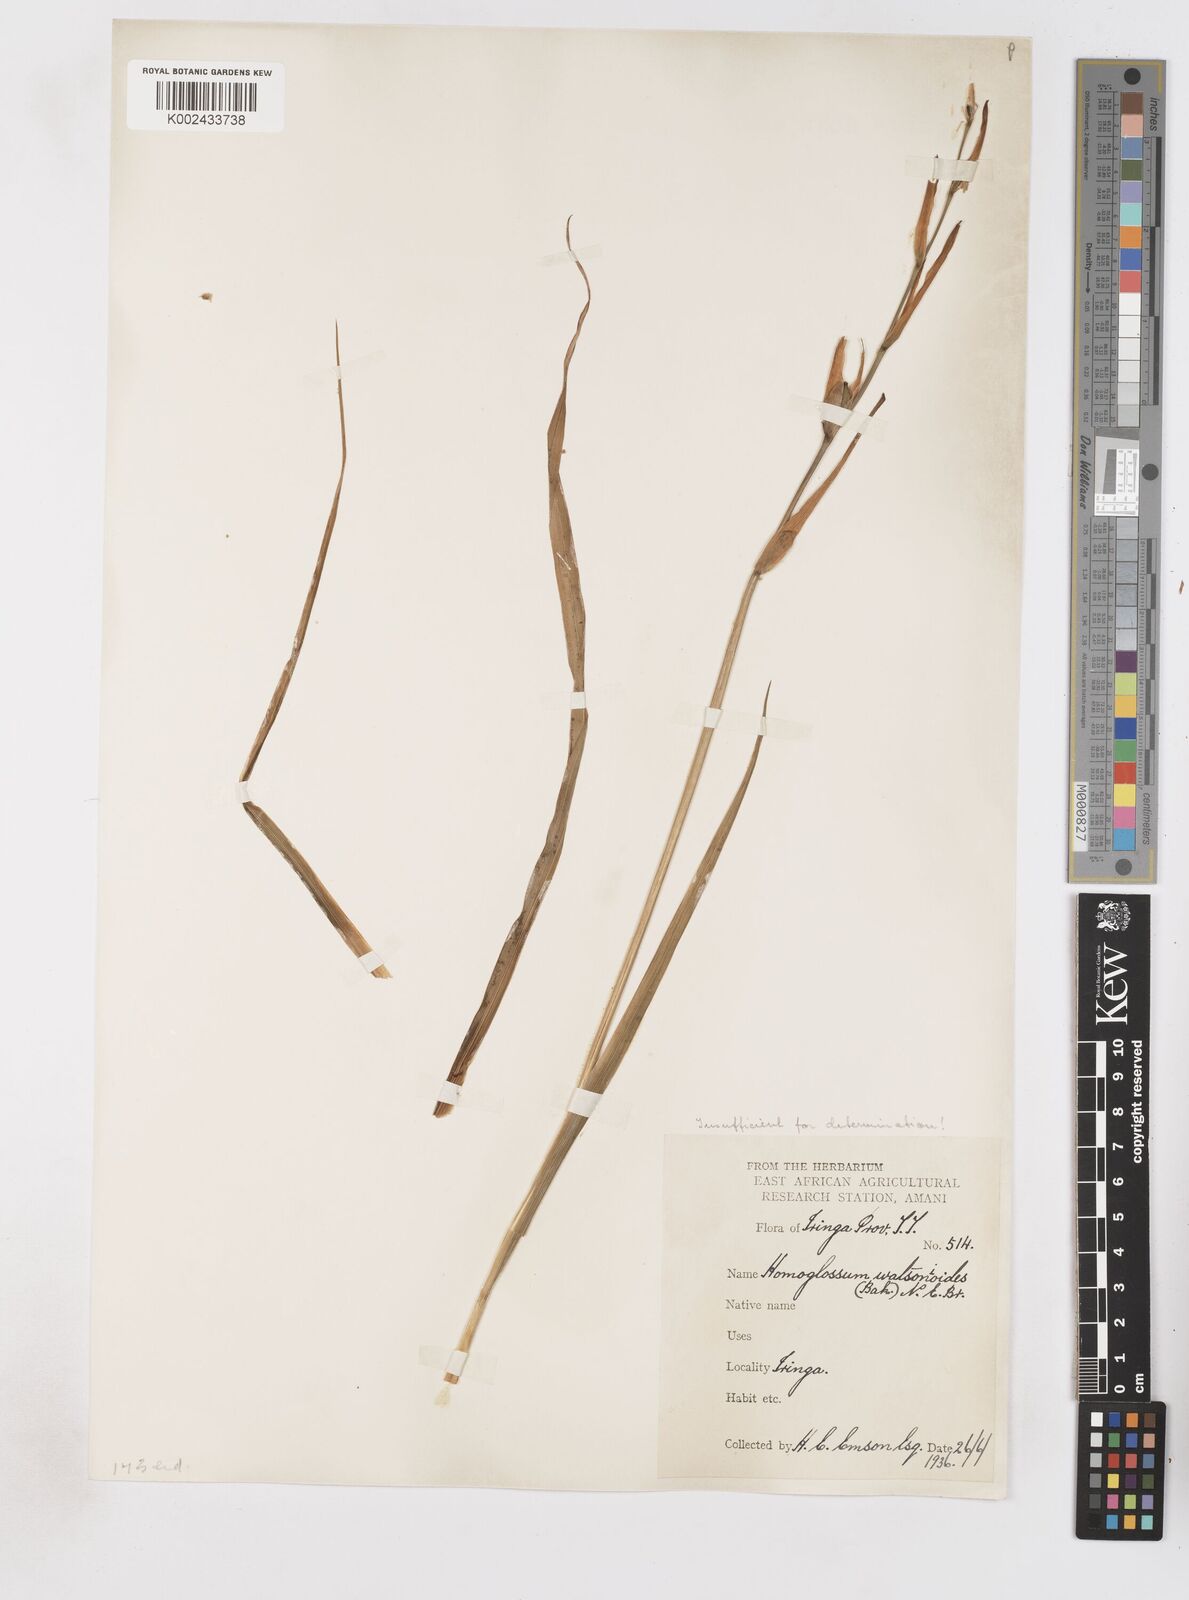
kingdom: Plantae
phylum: Tracheophyta
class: Liliopsida
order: Asparagales
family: Iridaceae
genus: Gladiolus
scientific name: Gladiolus
